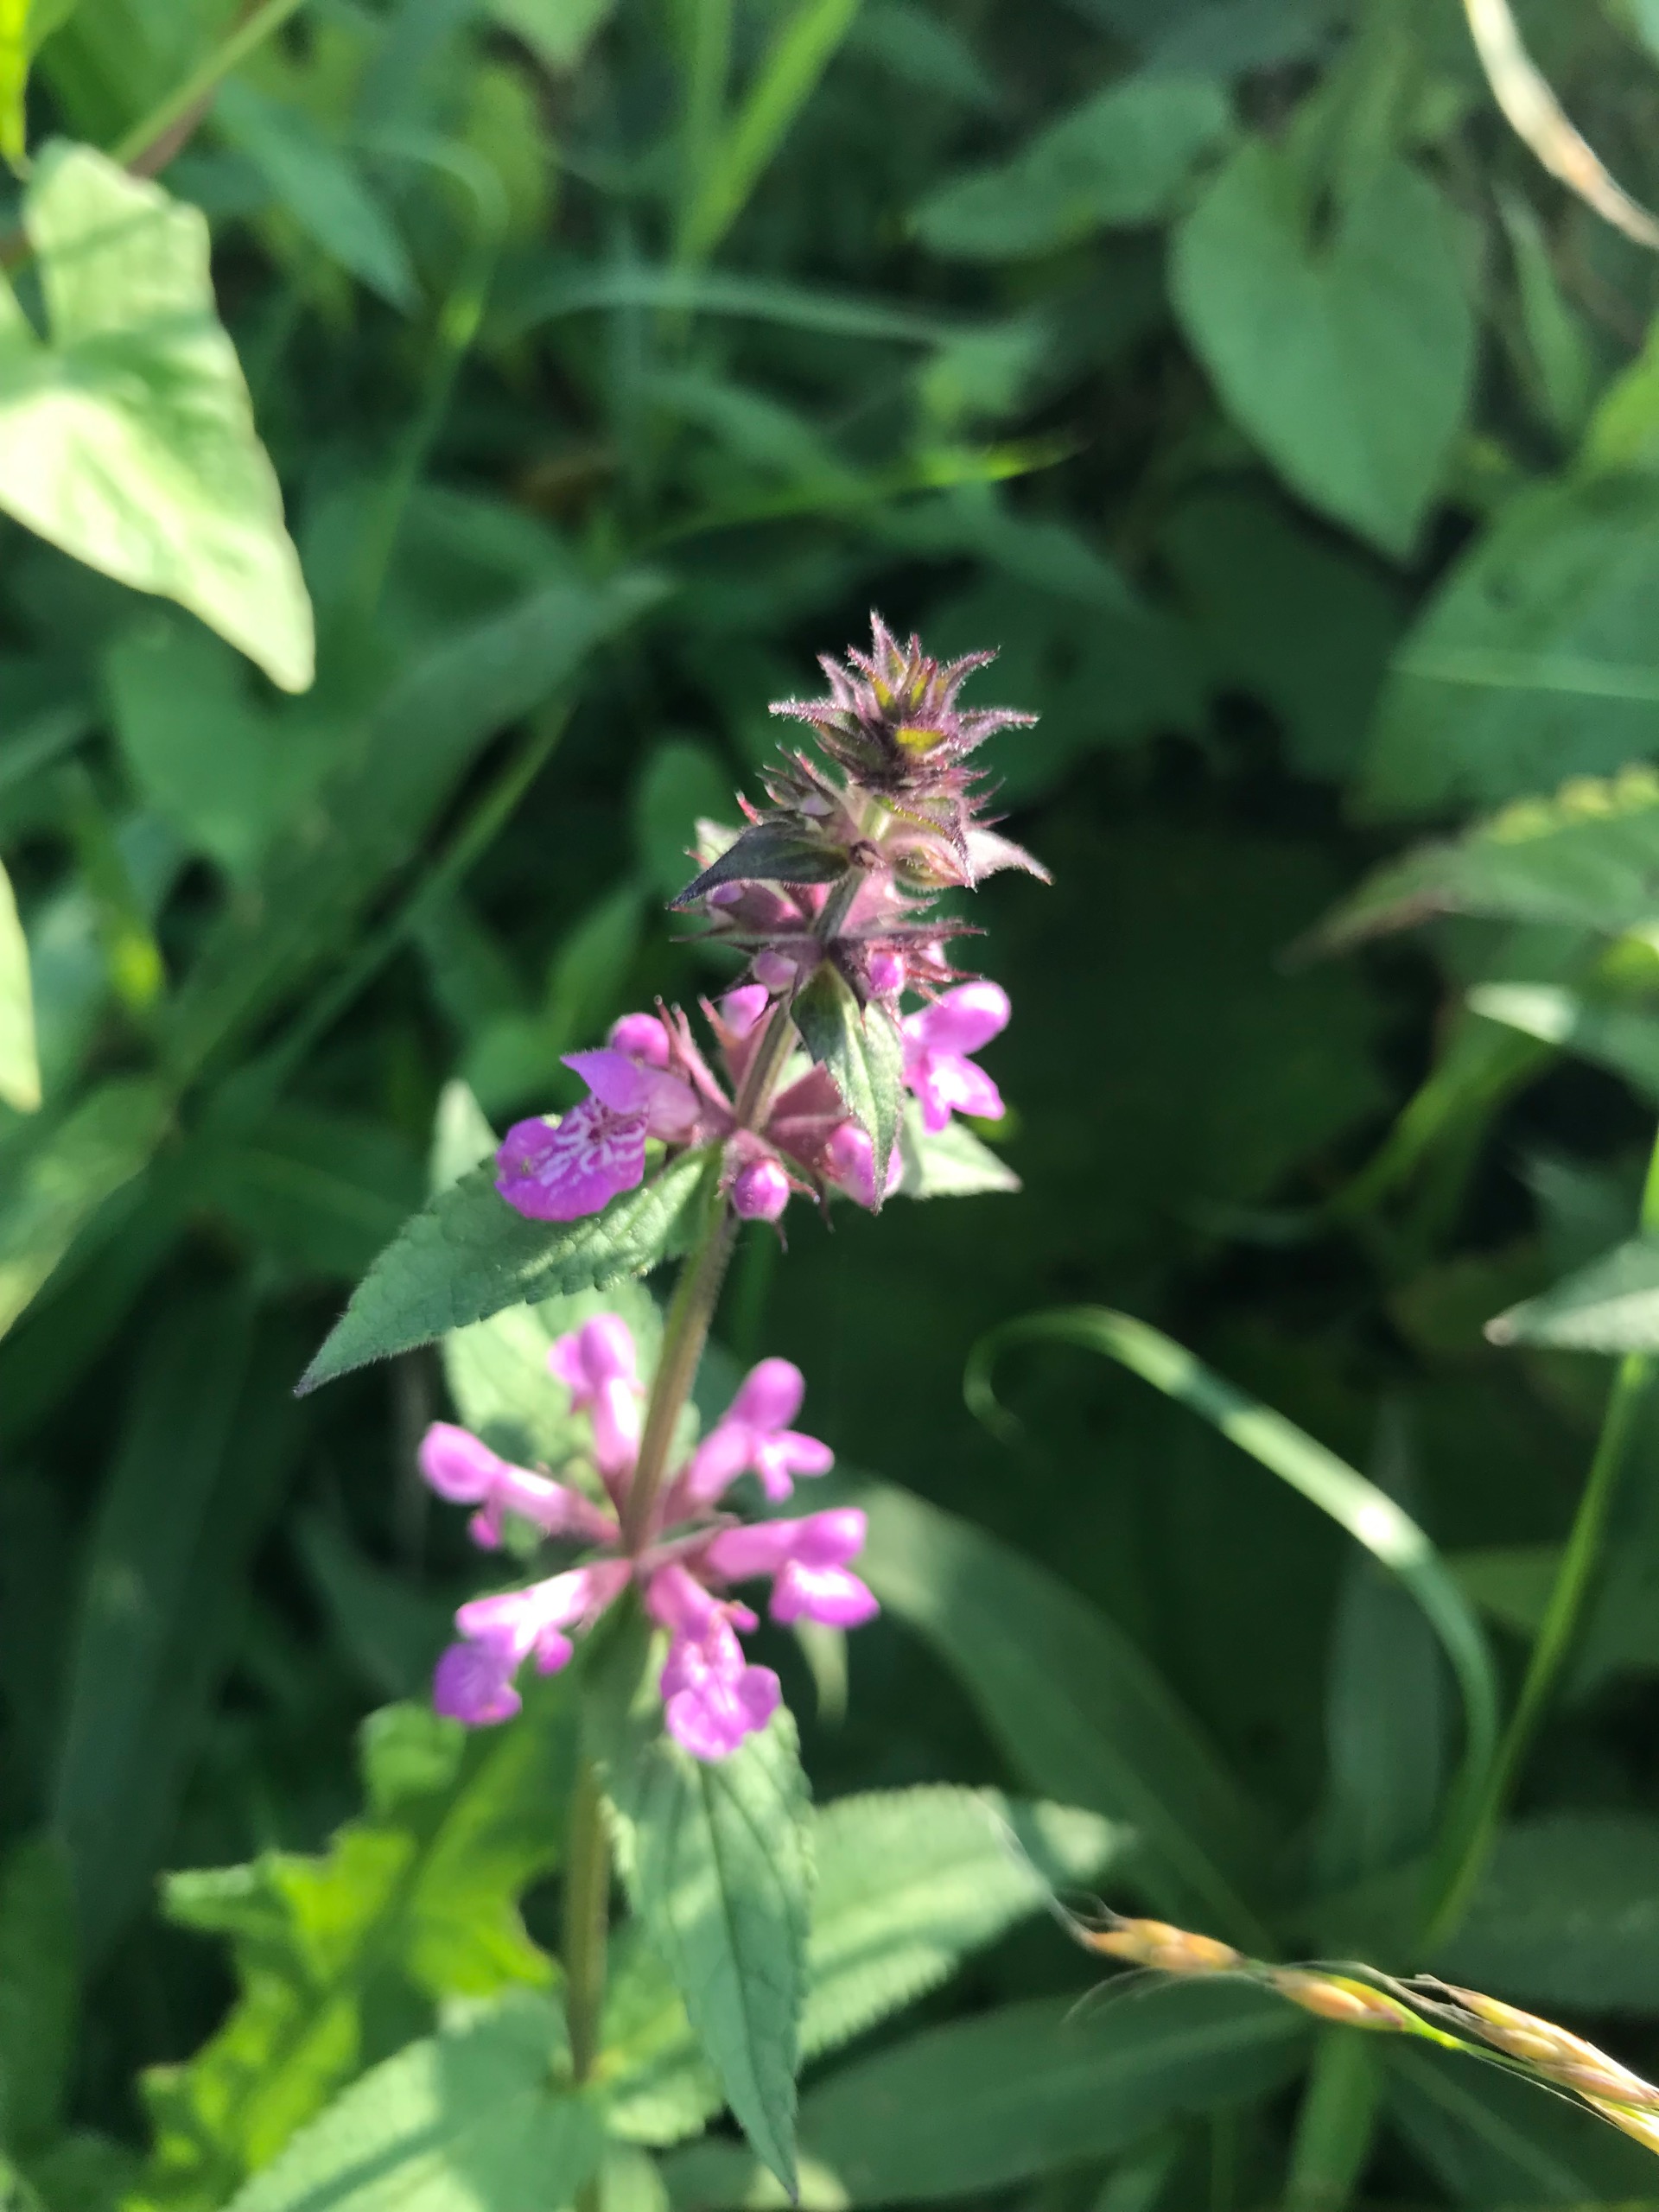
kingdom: Plantae
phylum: Tracheophyta
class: Magnoliopsida
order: Lamiales
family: Lamiaceae
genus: Stachys
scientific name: Stachys palustris
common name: Kær-galtetand
